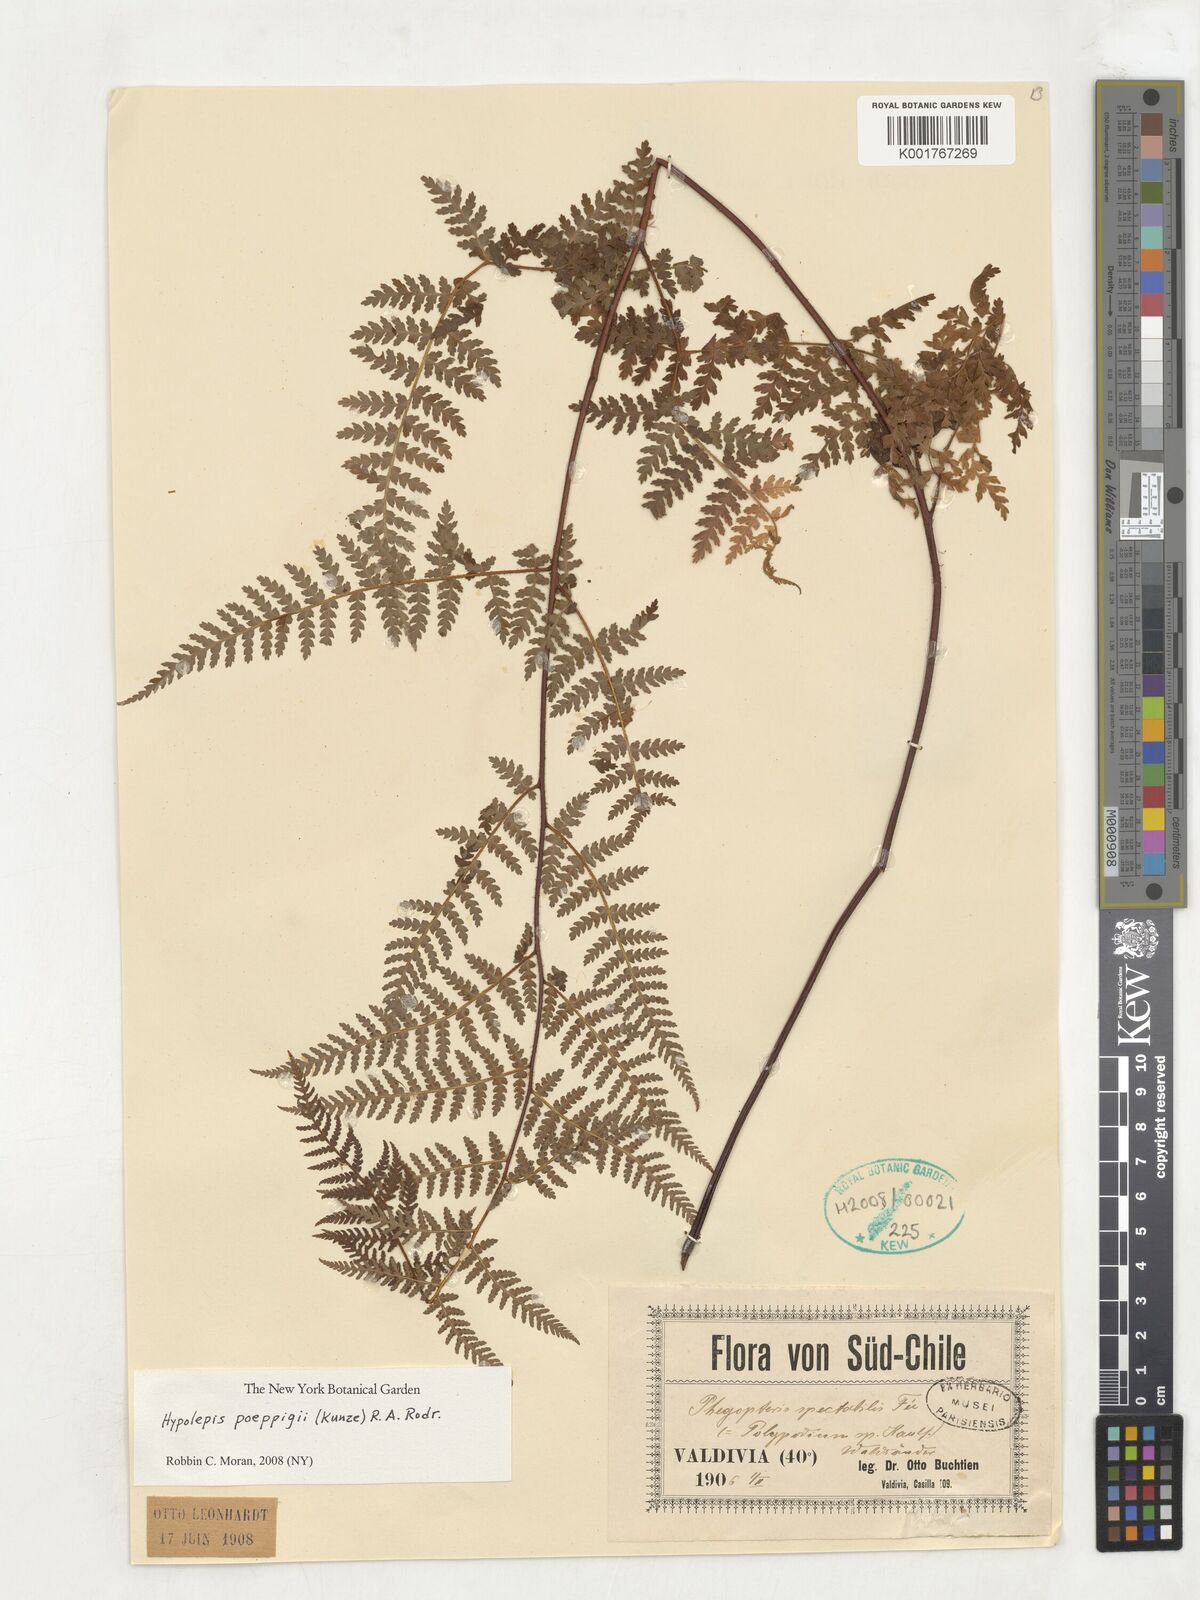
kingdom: Plantae
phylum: Tracheophyta
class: Polypodiopsida
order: Polypodiales
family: Dennstaedtiaceae
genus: Hypolepis
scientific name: Hypolepis poeppigii
